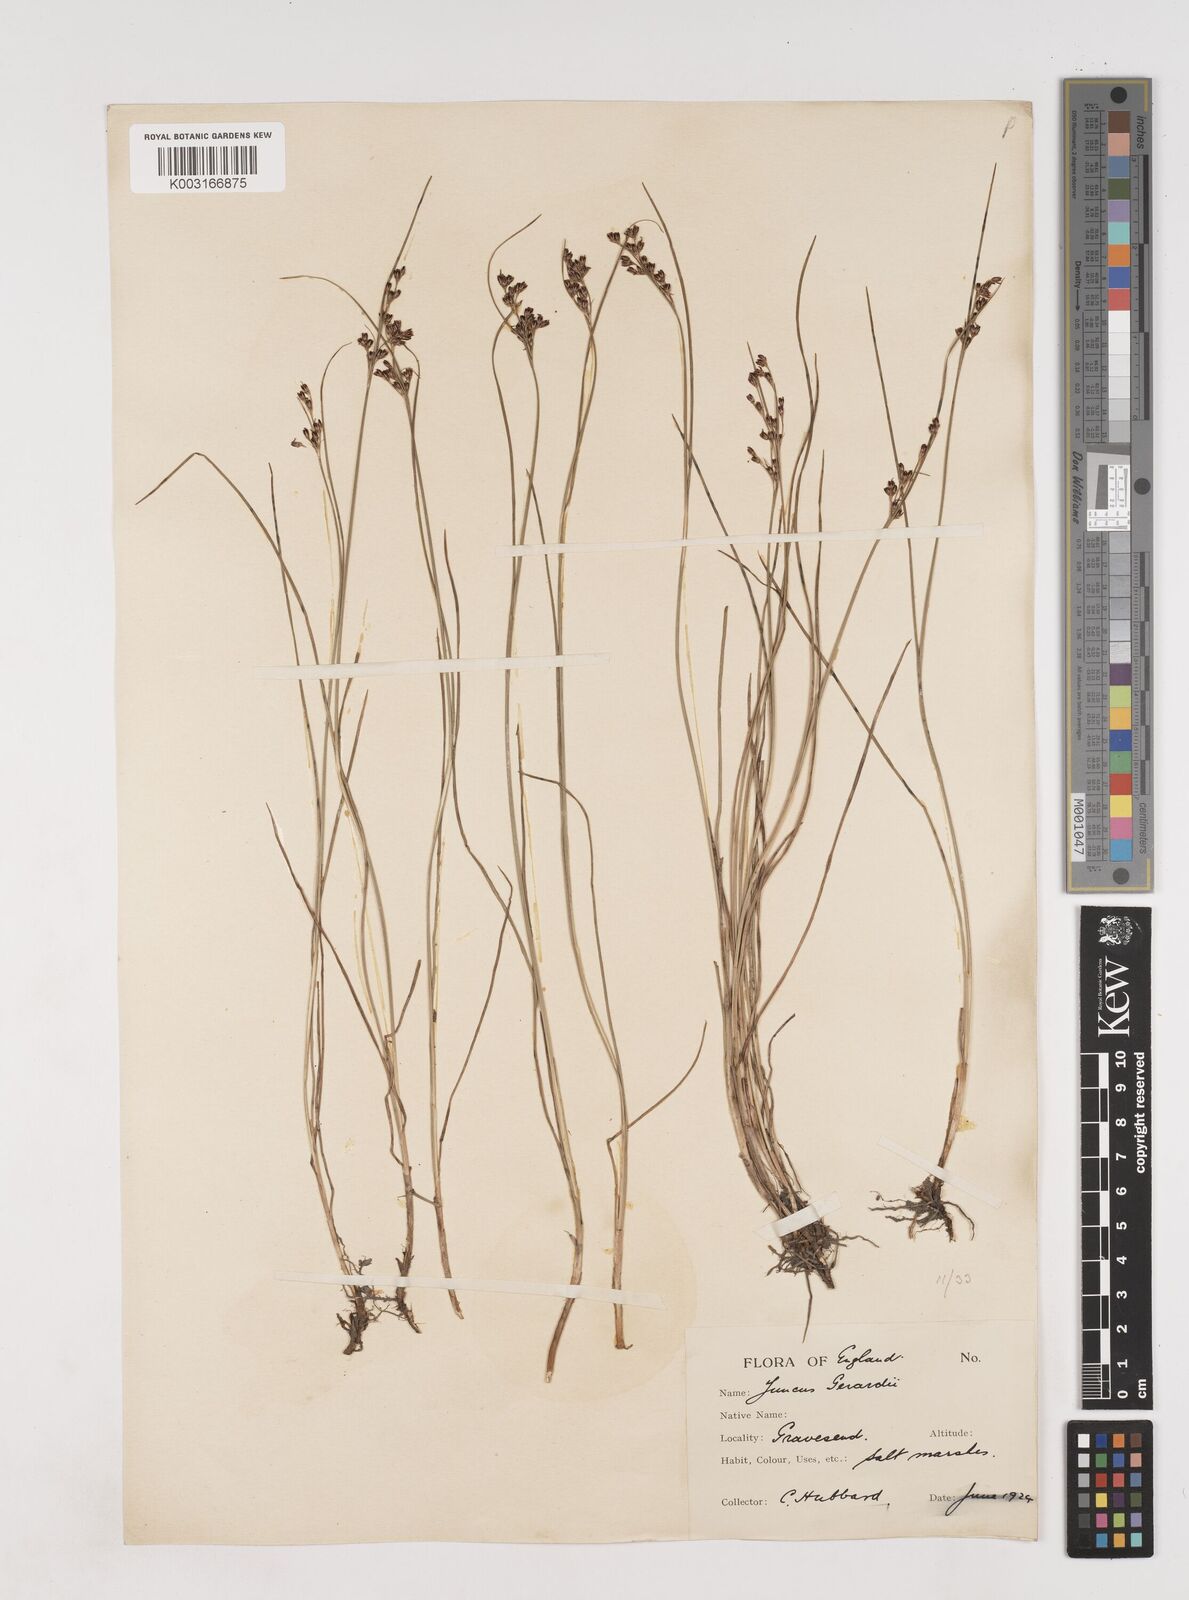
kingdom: Plantae
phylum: Tracheophyta
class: Liliopsida
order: Poales
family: Juncaceae
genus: Juncus
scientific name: Juncus gerardi
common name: Saltmarsh rush
